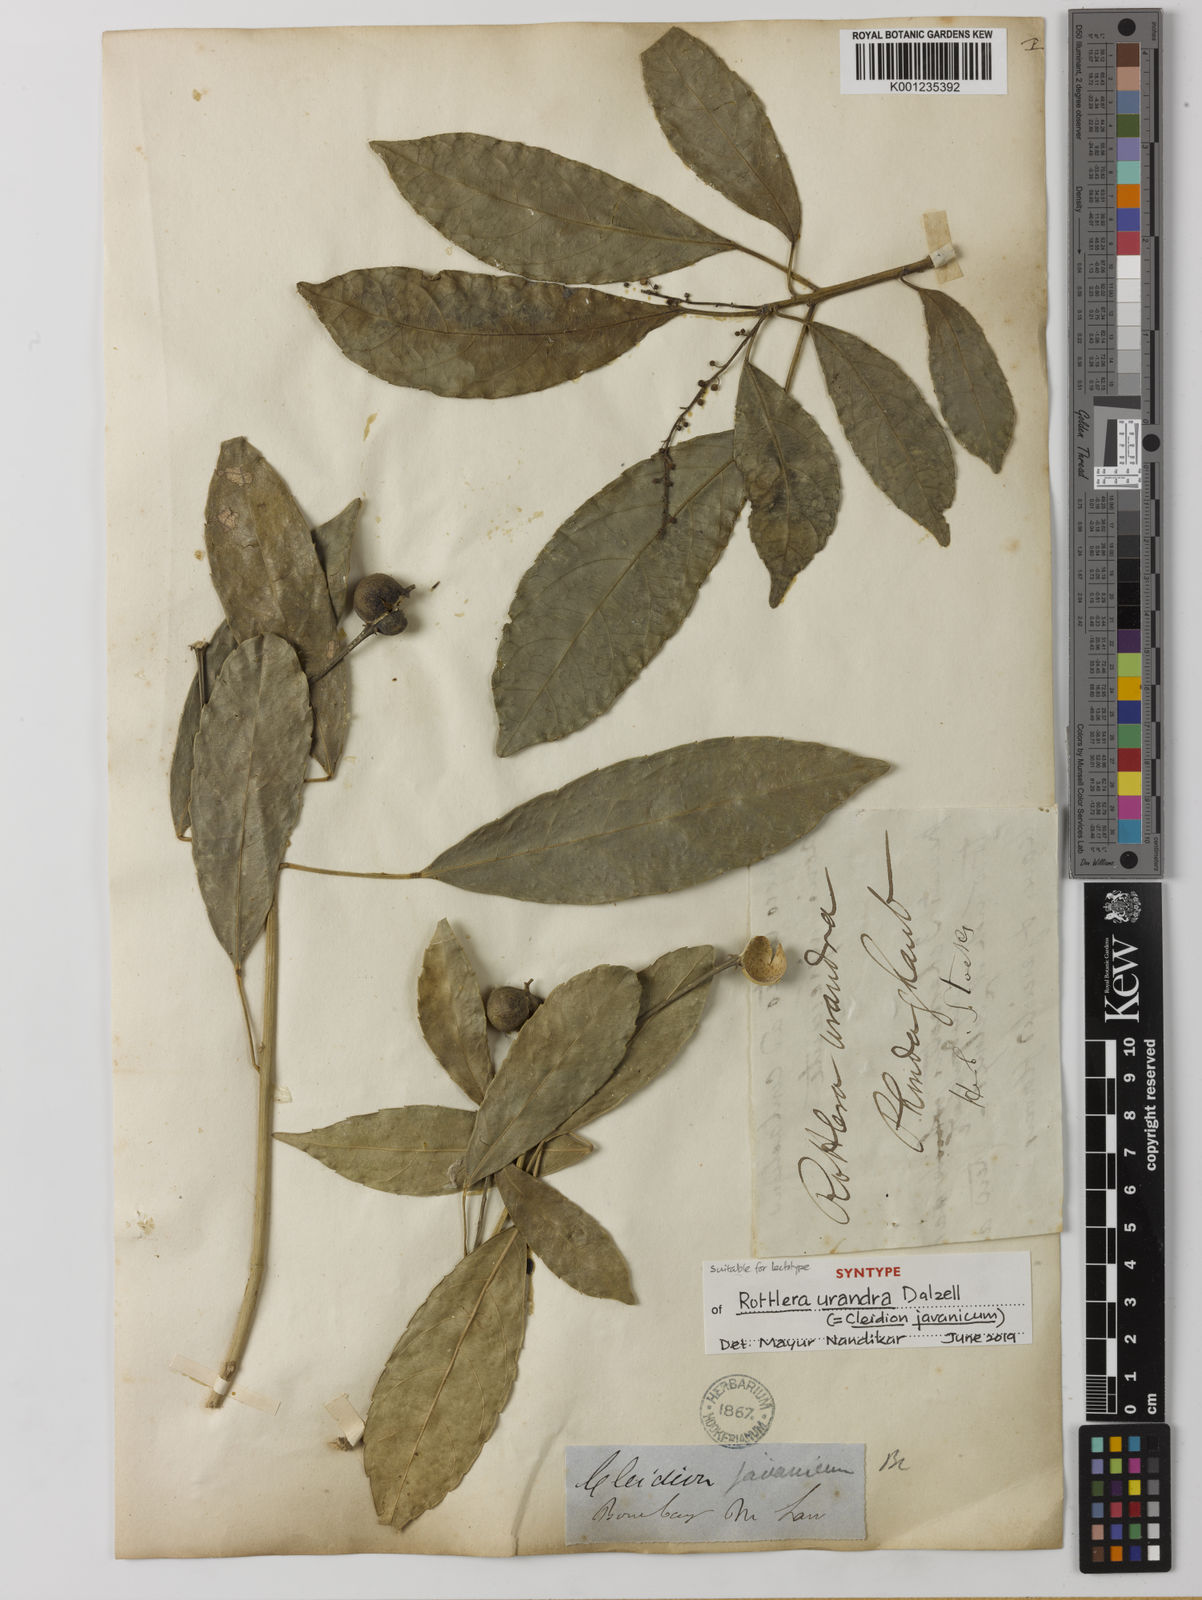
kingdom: Plantae
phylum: Tracheophyta
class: Magnoliopsida
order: Malpighiales
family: Euphorbiaceae
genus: Cleidion
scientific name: Cleidion javanicum
